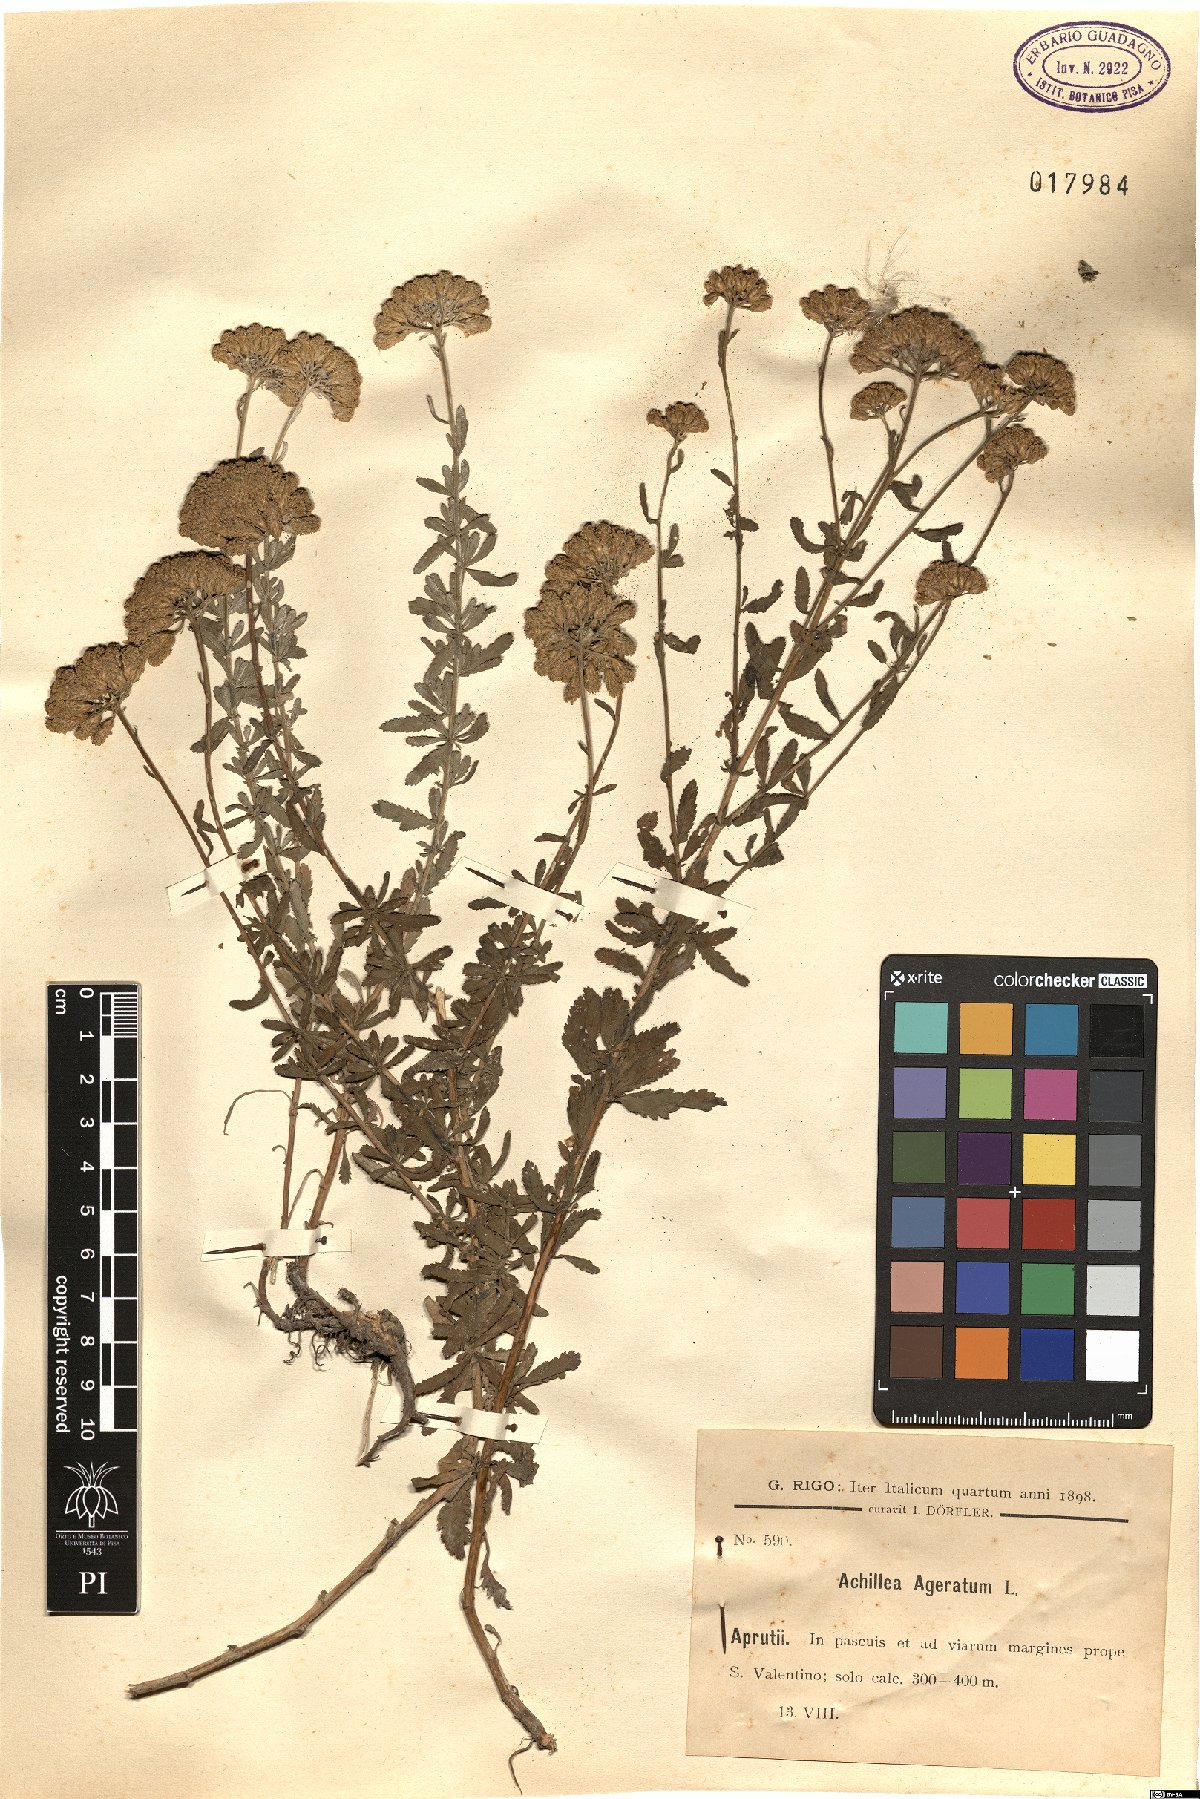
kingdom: Plantae
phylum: Tracheophyta
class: Magnoliopsida
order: Asterales
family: Asteraceae
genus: Achillea
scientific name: Achillea ageratum
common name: Sweet-nancy
